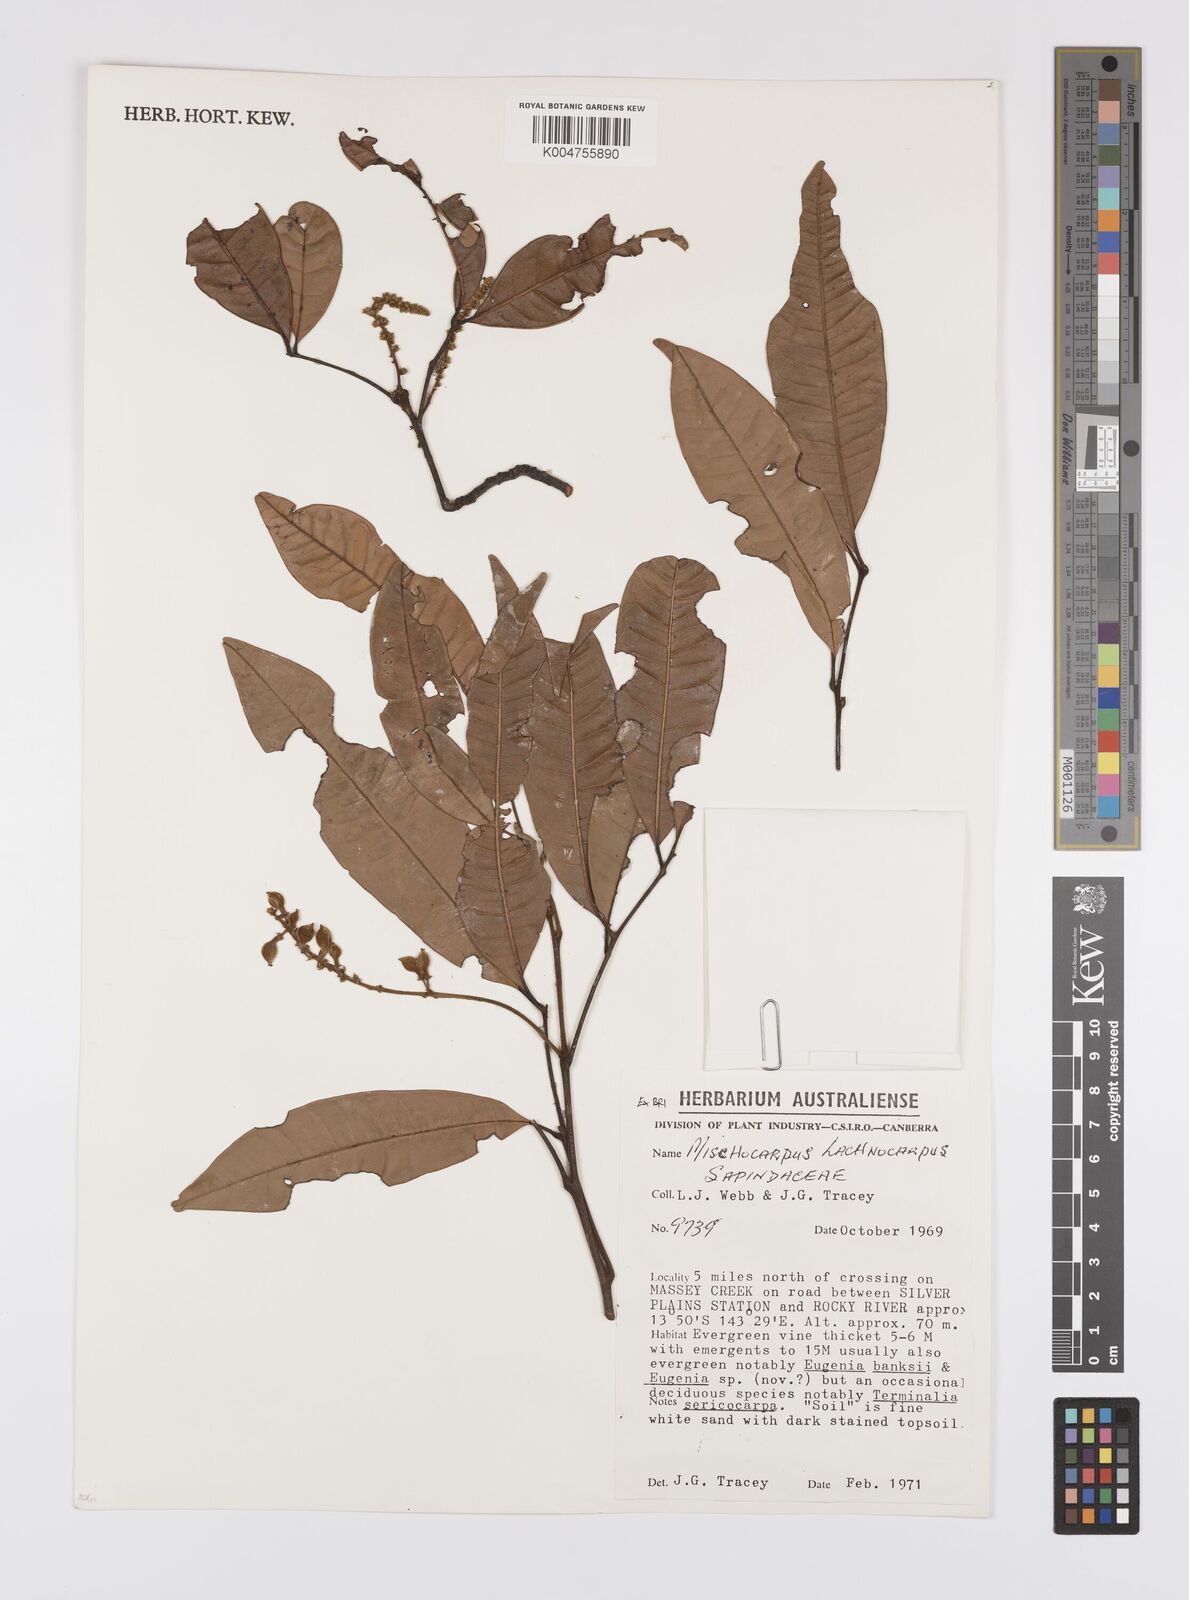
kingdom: Plantae
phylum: Tracheophyta
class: Magnoliopsida
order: Sapindales
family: Sapindaceae
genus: Mischocarpus
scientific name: Mischocarpus lachnocarpus
